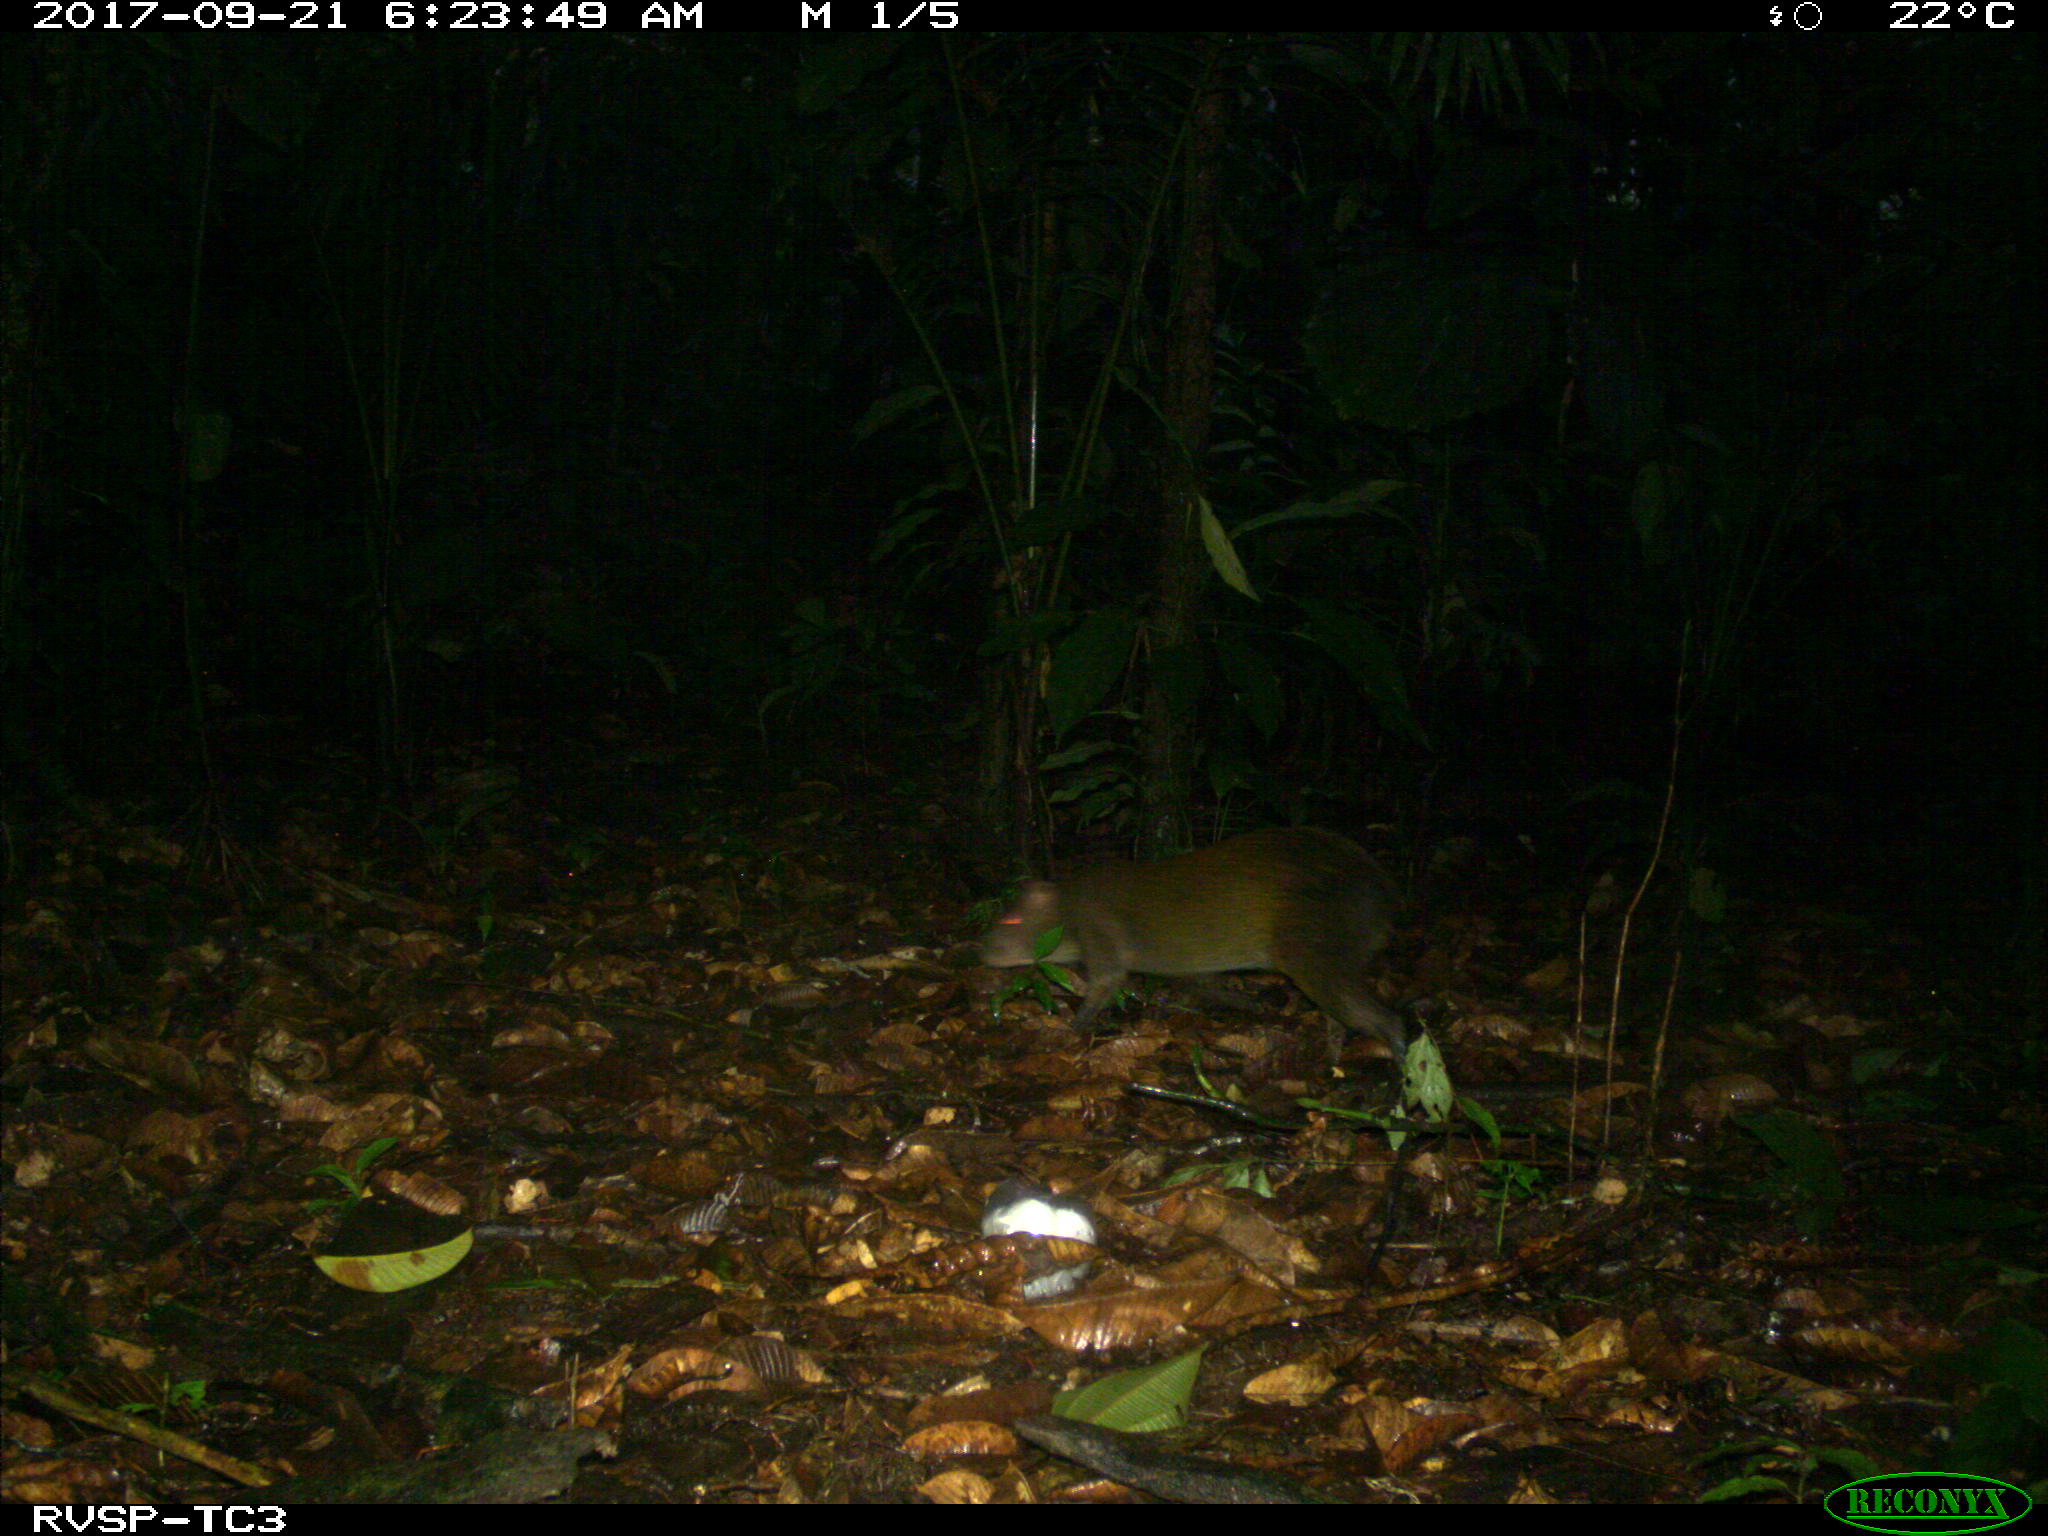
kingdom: Animalia
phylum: Chordata
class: Mammalia
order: Rodentia
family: Dasyproctidae
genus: Dasyprocta
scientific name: Dasyprocta punctata
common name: Central american agouti
